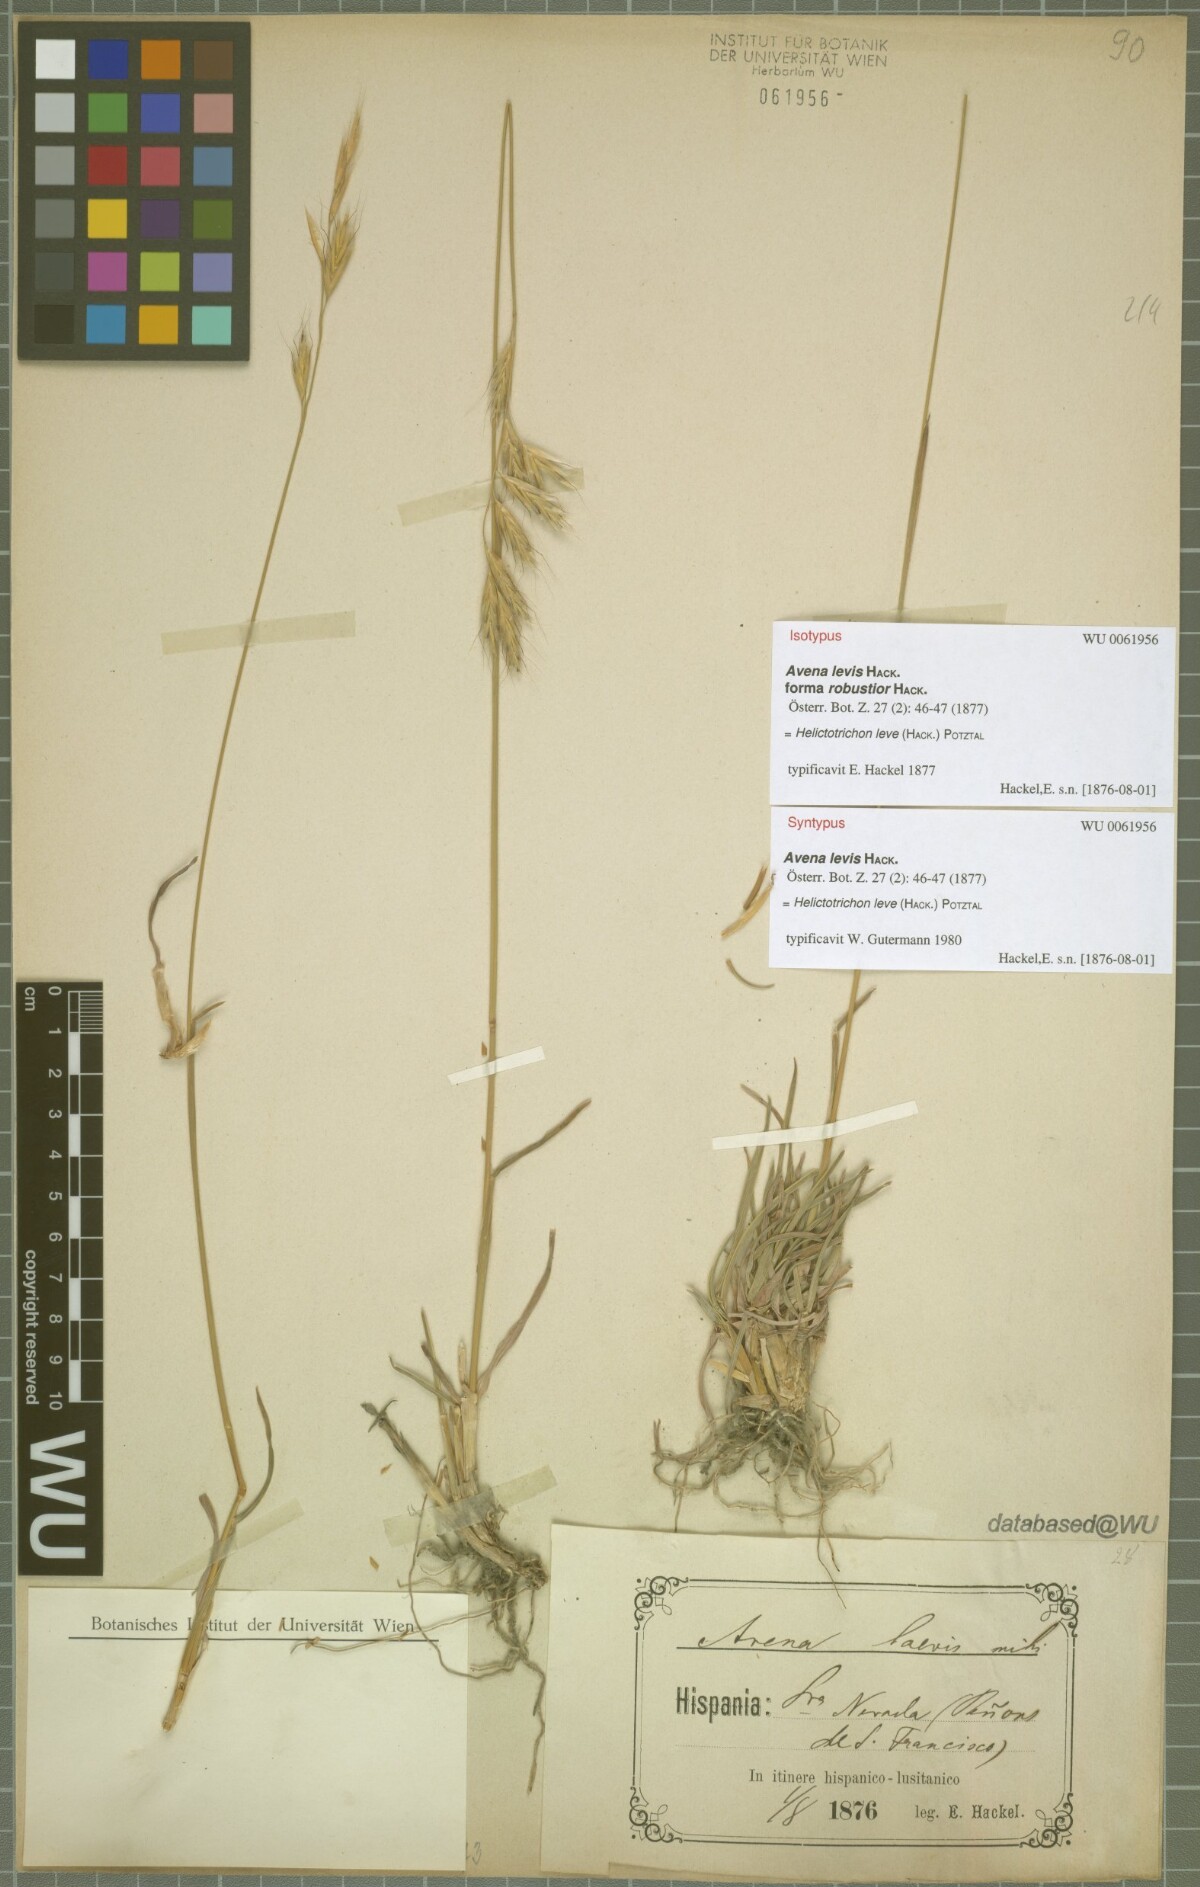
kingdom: Plantae
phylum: Tracheophyta
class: Liliopsida
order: Poales
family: Poaceae
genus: Helictochloa
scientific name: Helictochloa levis
